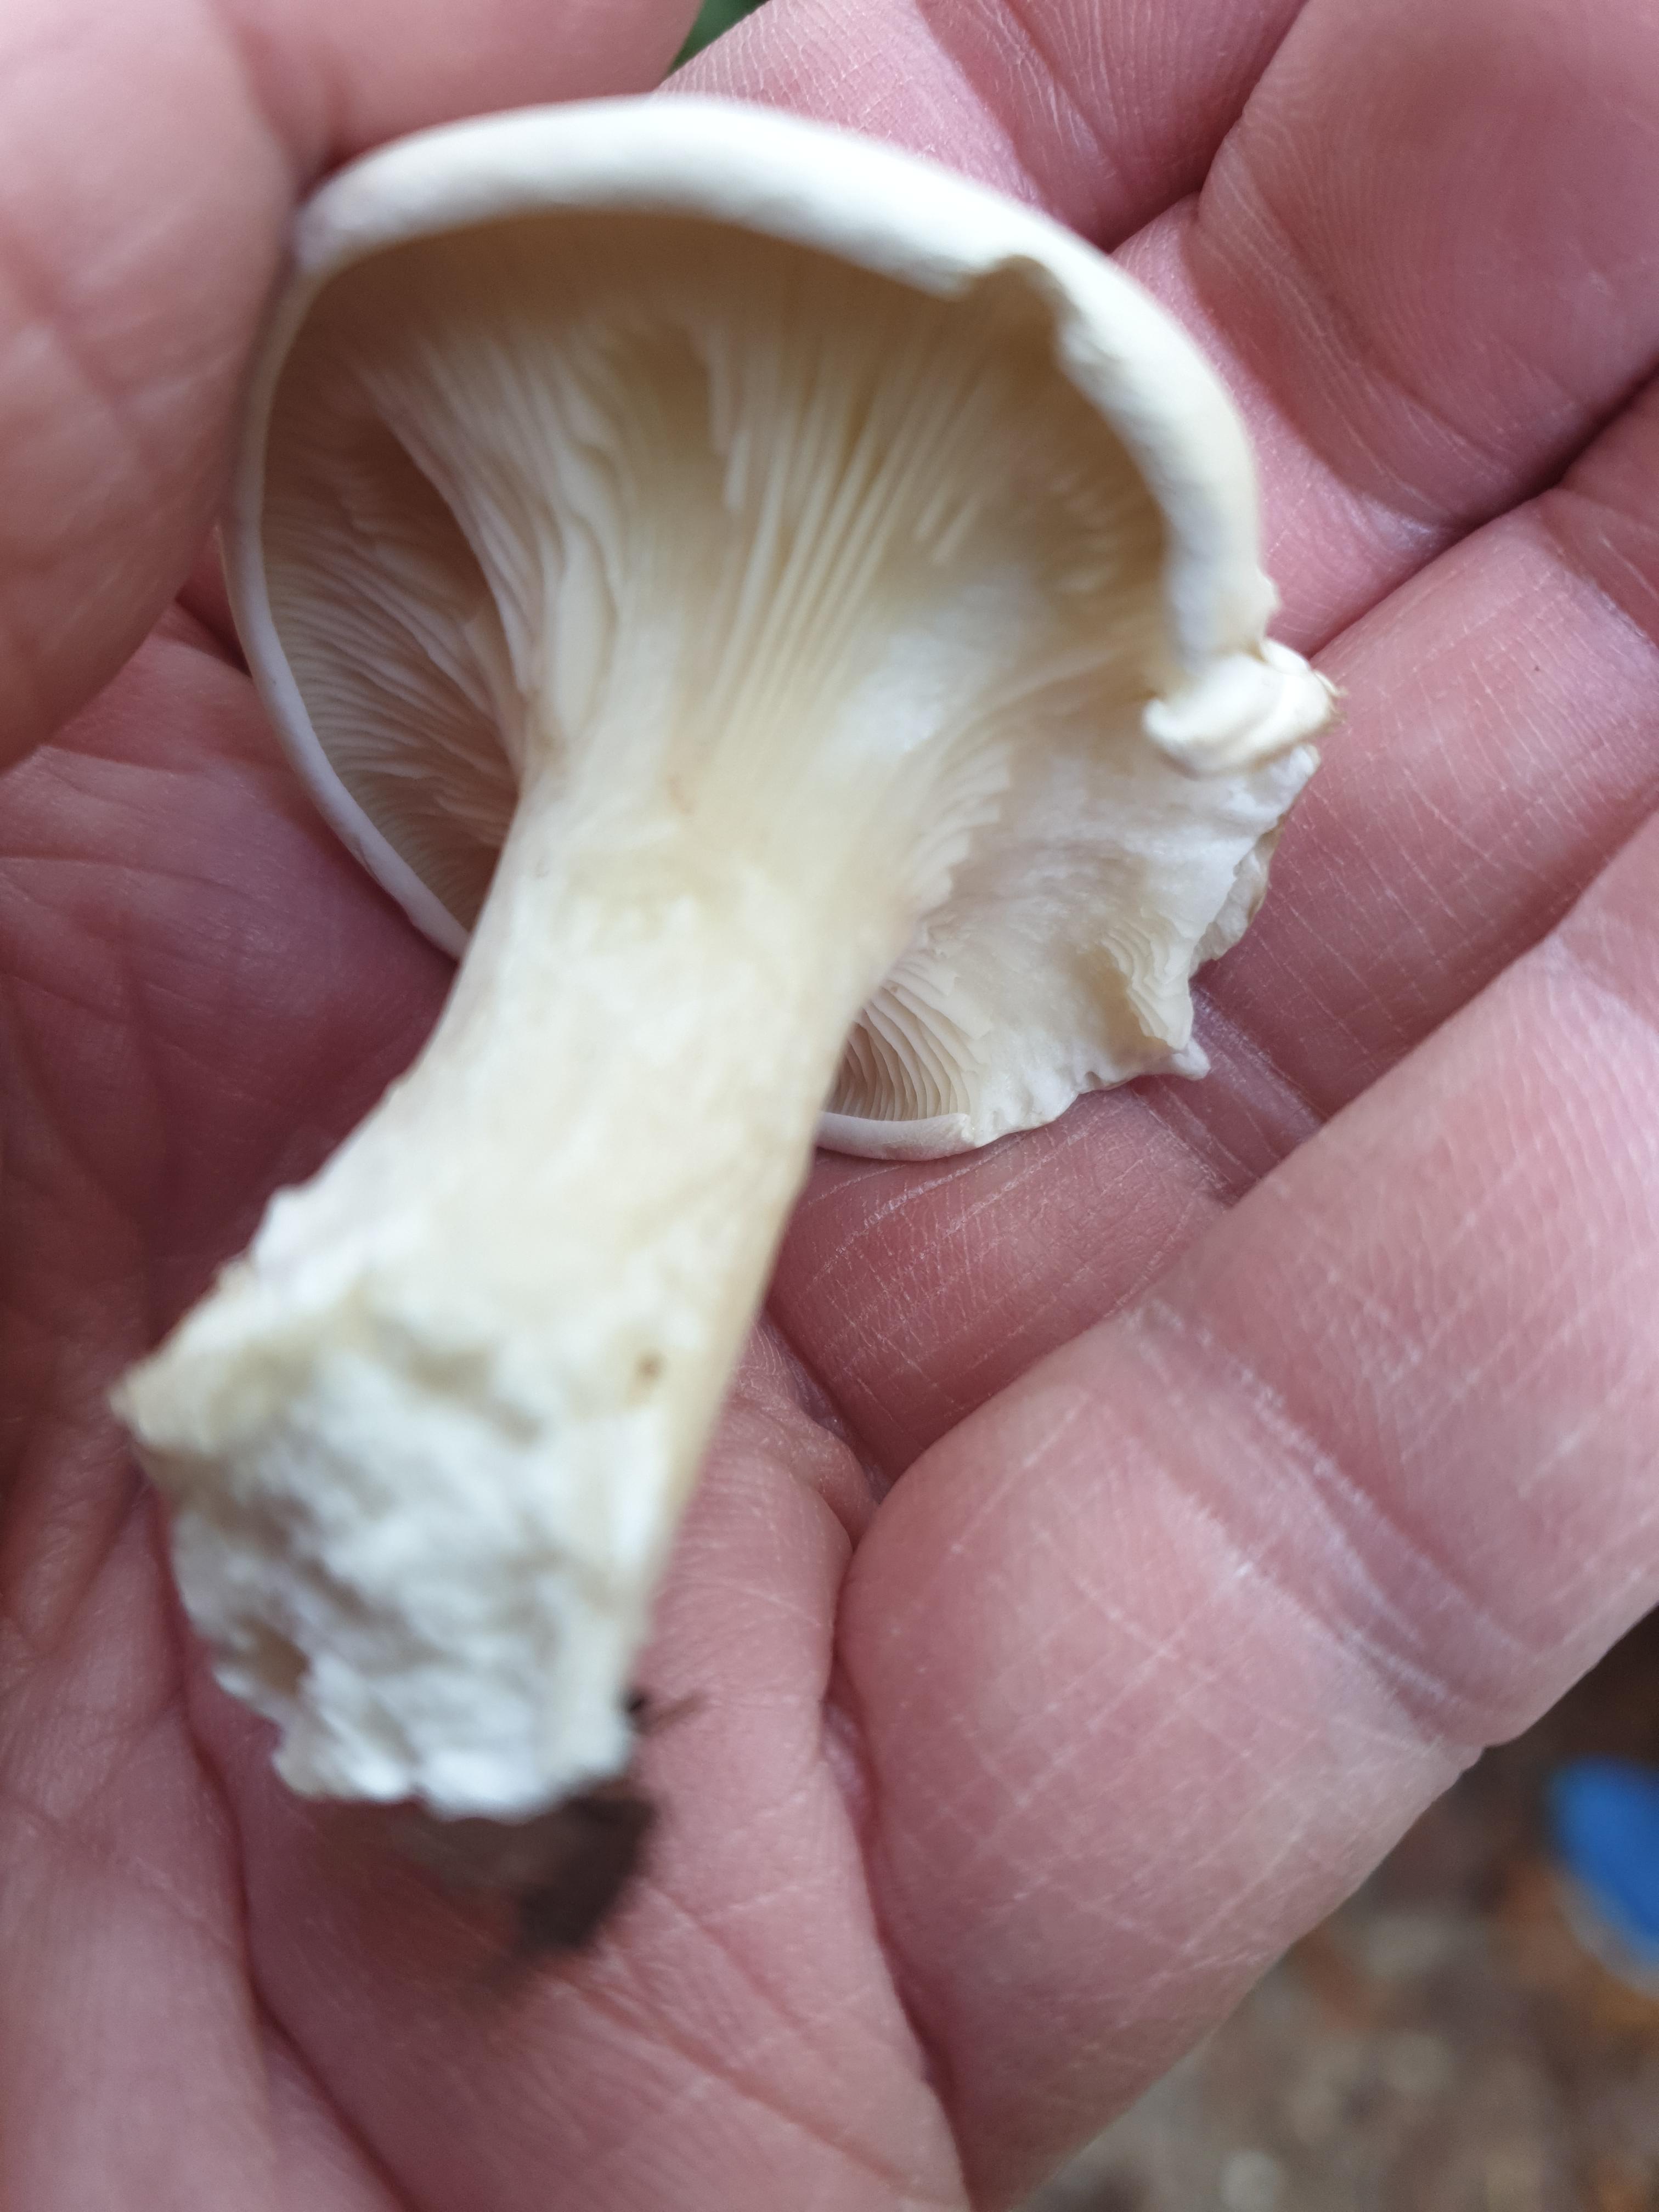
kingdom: Fungi
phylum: Basidiomycota
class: Agaricomycetes
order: Agaricales
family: Entolomataceae
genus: Clitopilus
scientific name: Clitopilus prunulus
